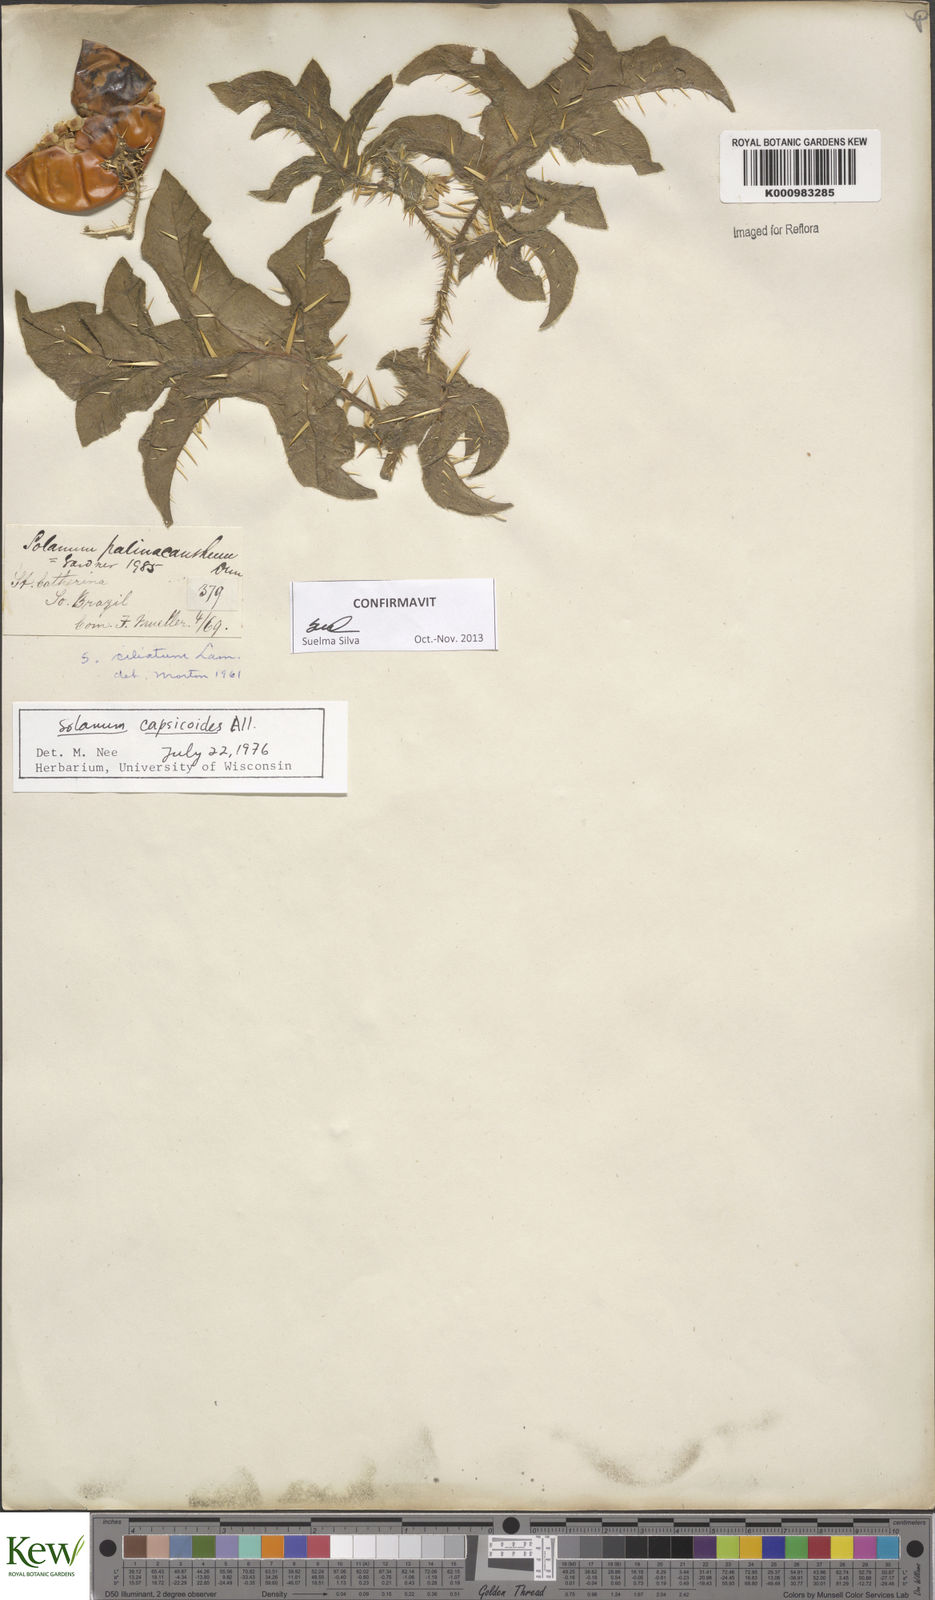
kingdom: Plantae
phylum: Tracheophyta
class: Magnoliopsida
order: Solanales
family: Solanaceae
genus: Solanum
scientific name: Solanum capsicoides
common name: Cockroach berry
